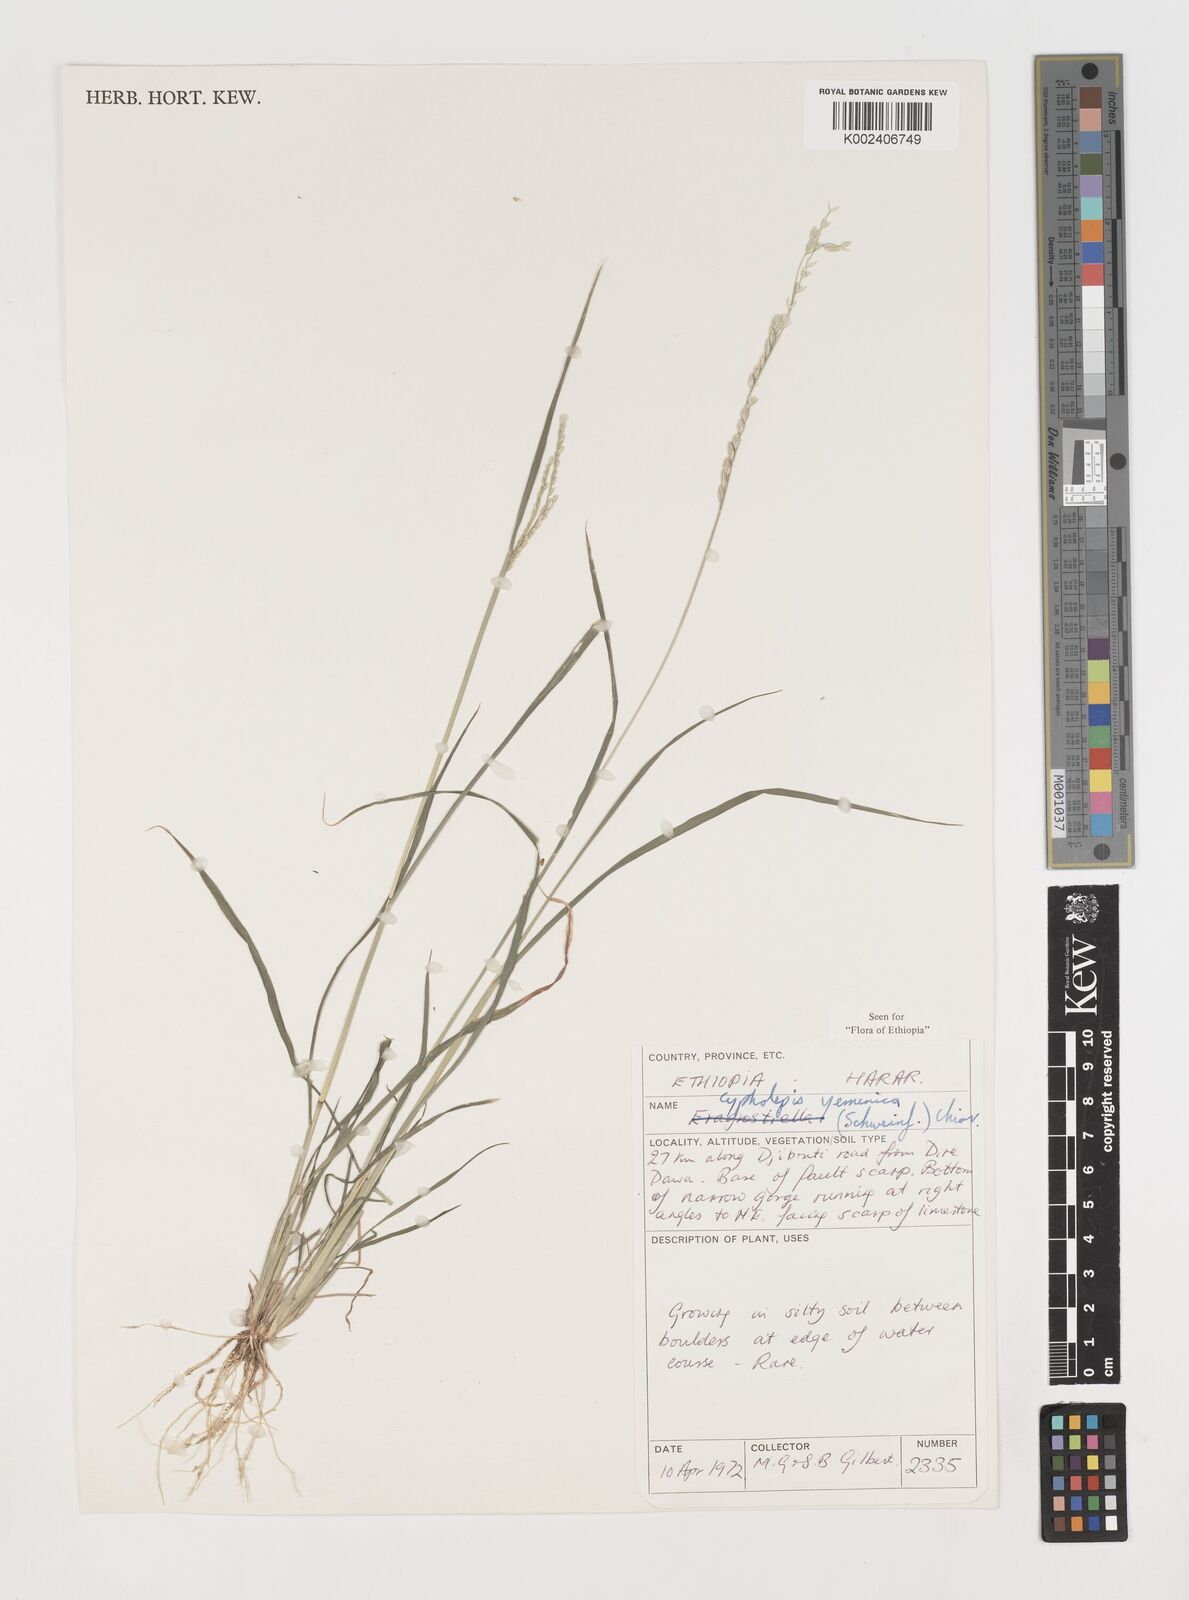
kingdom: Plantae
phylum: Tracheophyta
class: Liliopsida
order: Poales
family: Poaceae
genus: Disakisperma
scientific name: Disakisperma yemenicum
